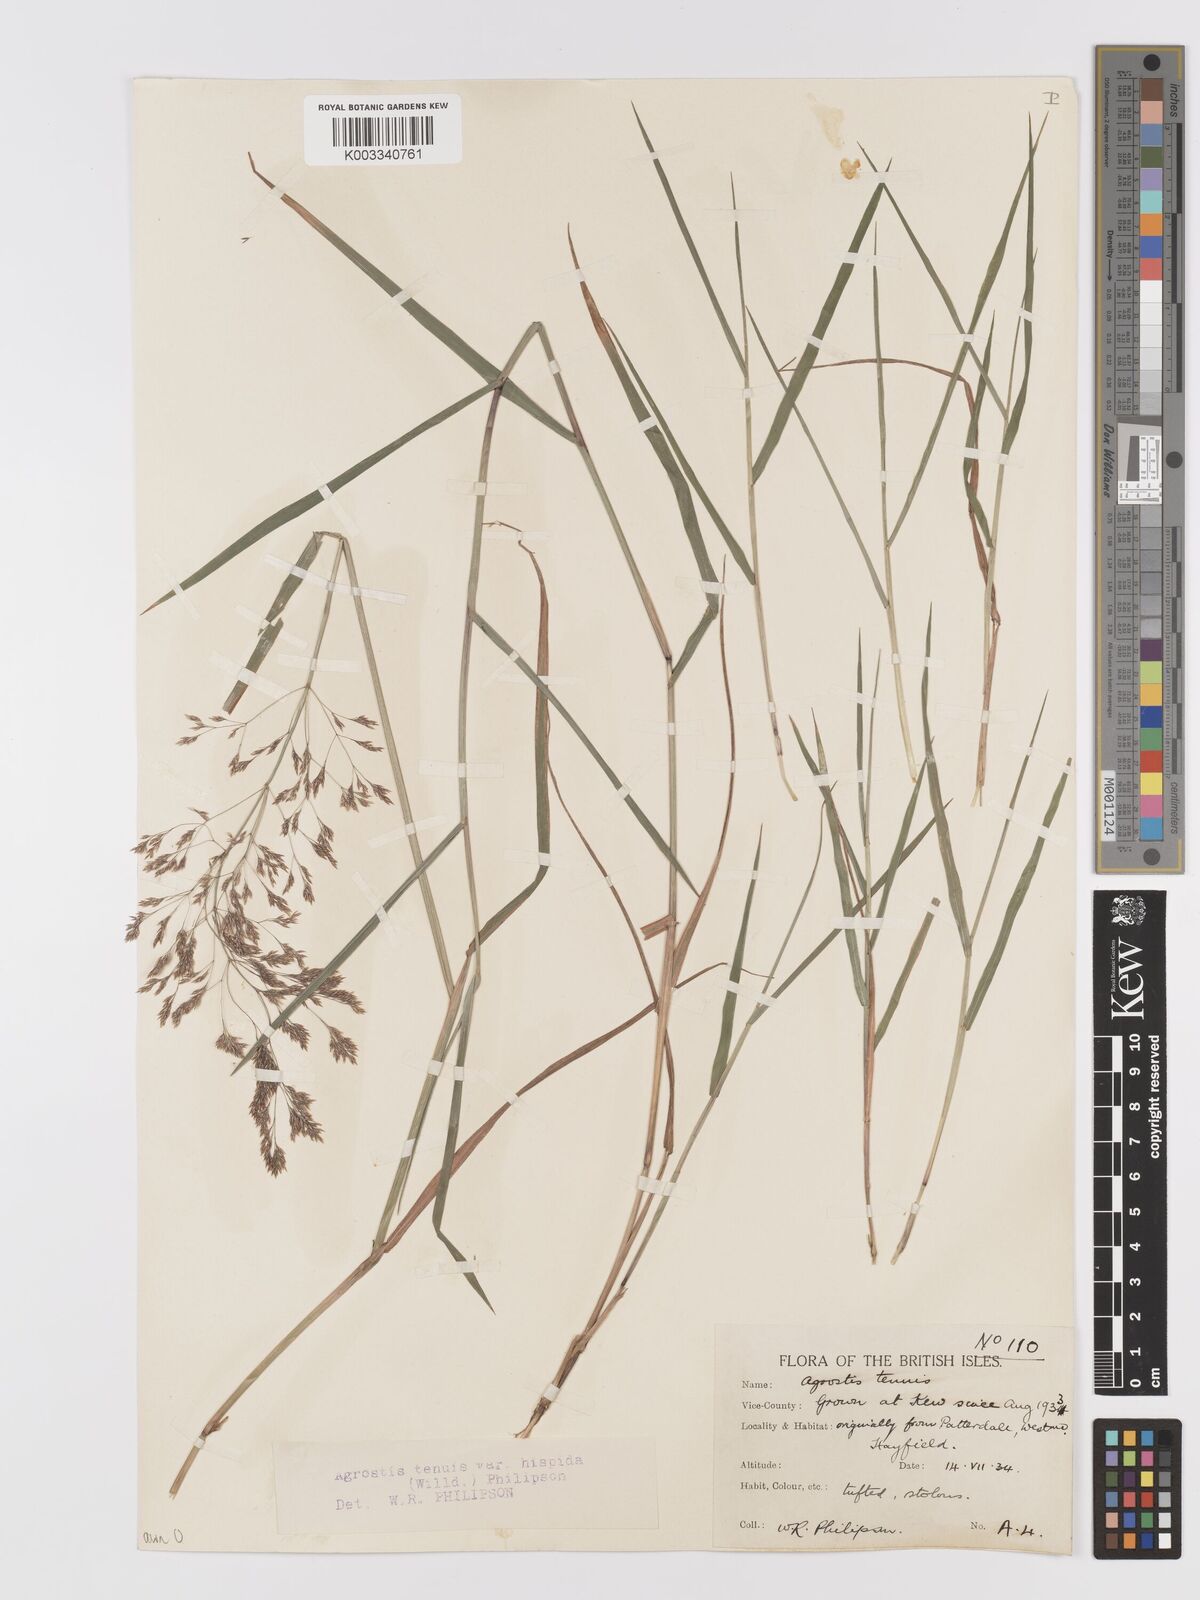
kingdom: Plantae
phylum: Tracheophyta
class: Liliopsida
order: Poales
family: Poaceae
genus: Agrostis
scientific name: Agrostis capillaris
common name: Colonial bentgrass
